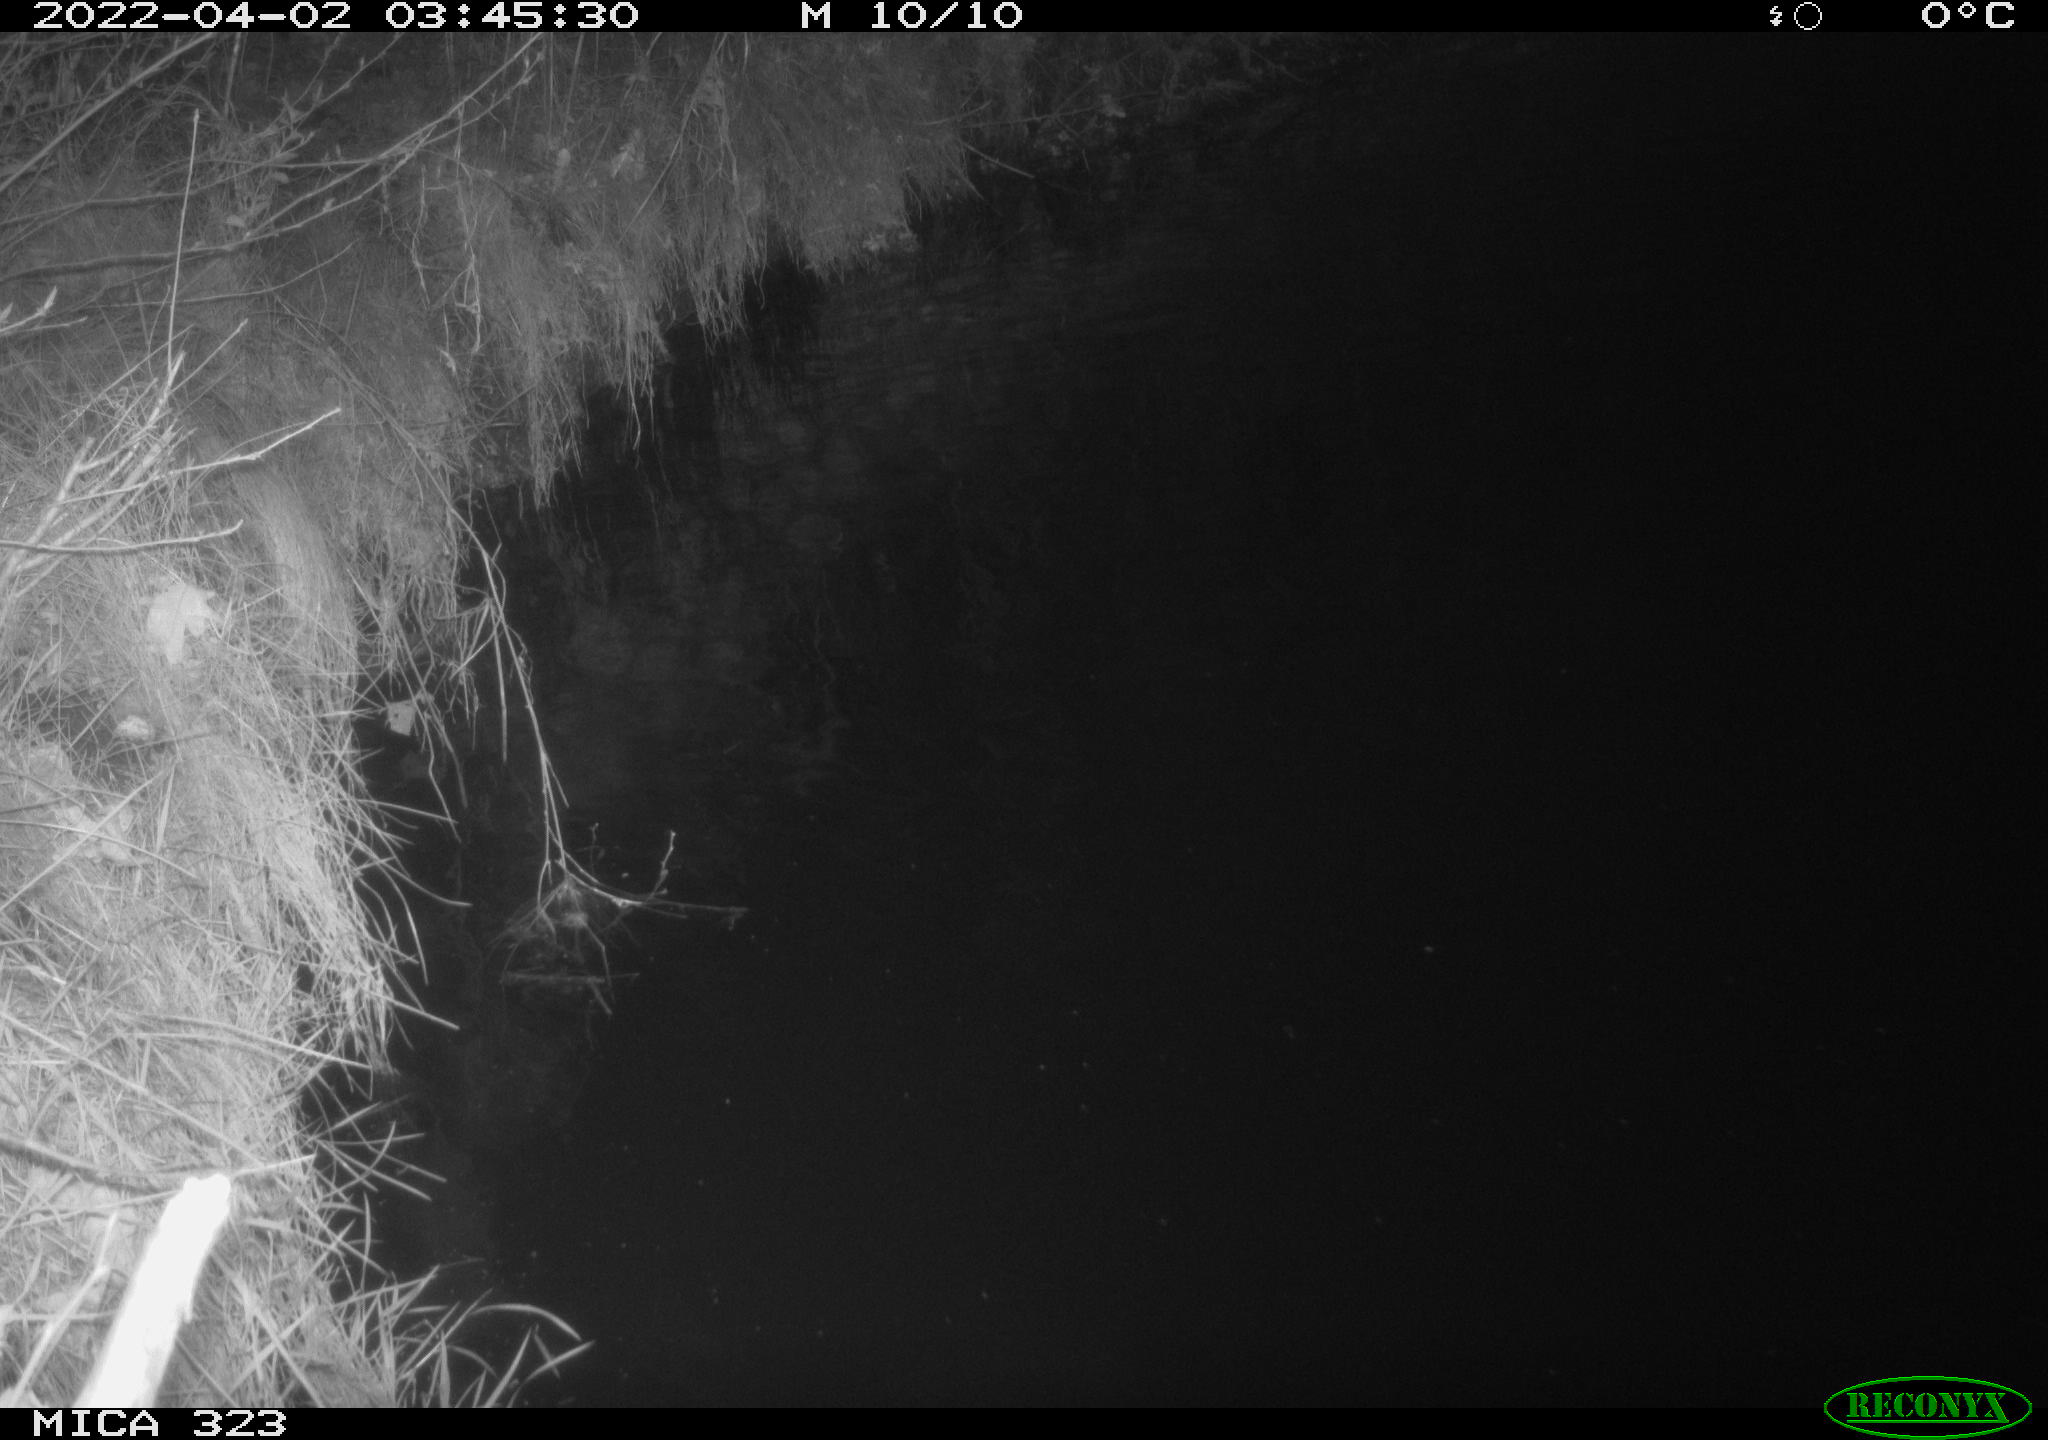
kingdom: Animalia
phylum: Chordata
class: Aves
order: Anseriformes
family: Anatidae
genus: Anas
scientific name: Anas
